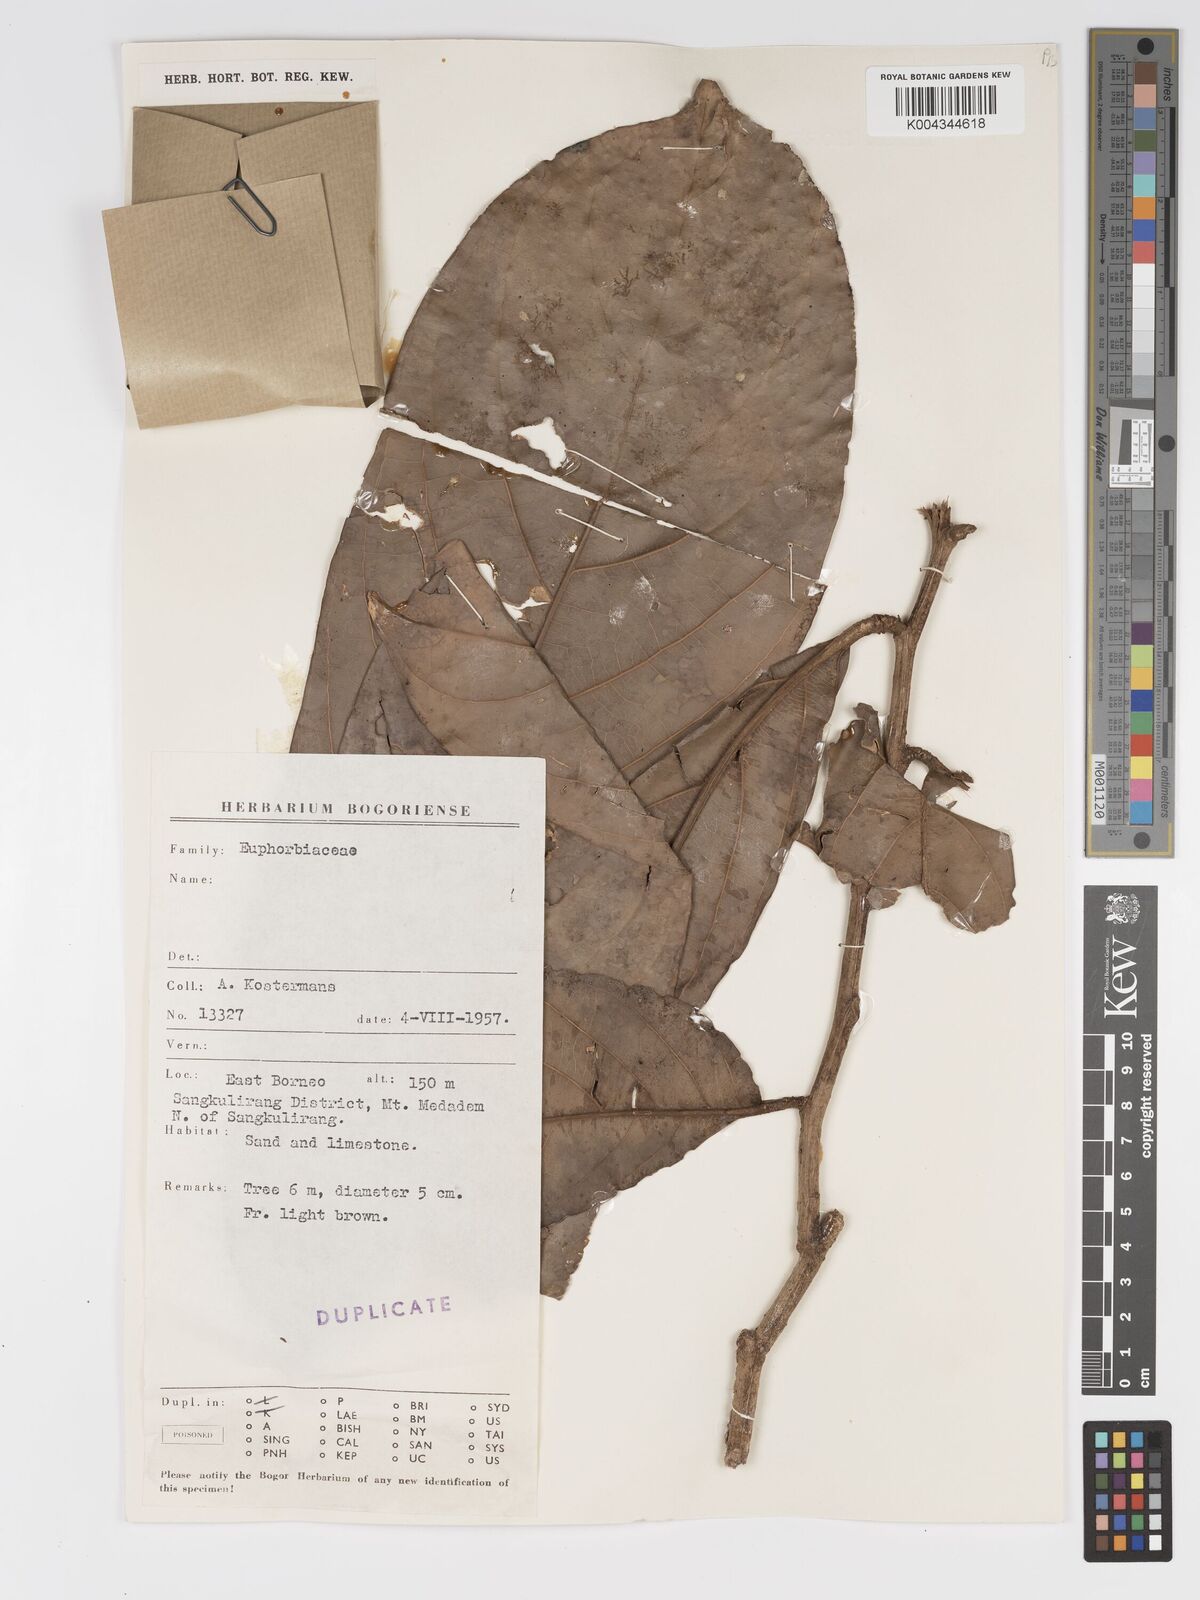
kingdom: Plantae
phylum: Tracheophyta
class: Magnoliopsida
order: Malpighiales
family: Putranjivaceae
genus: Drypetes
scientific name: Drypetes longifolia
